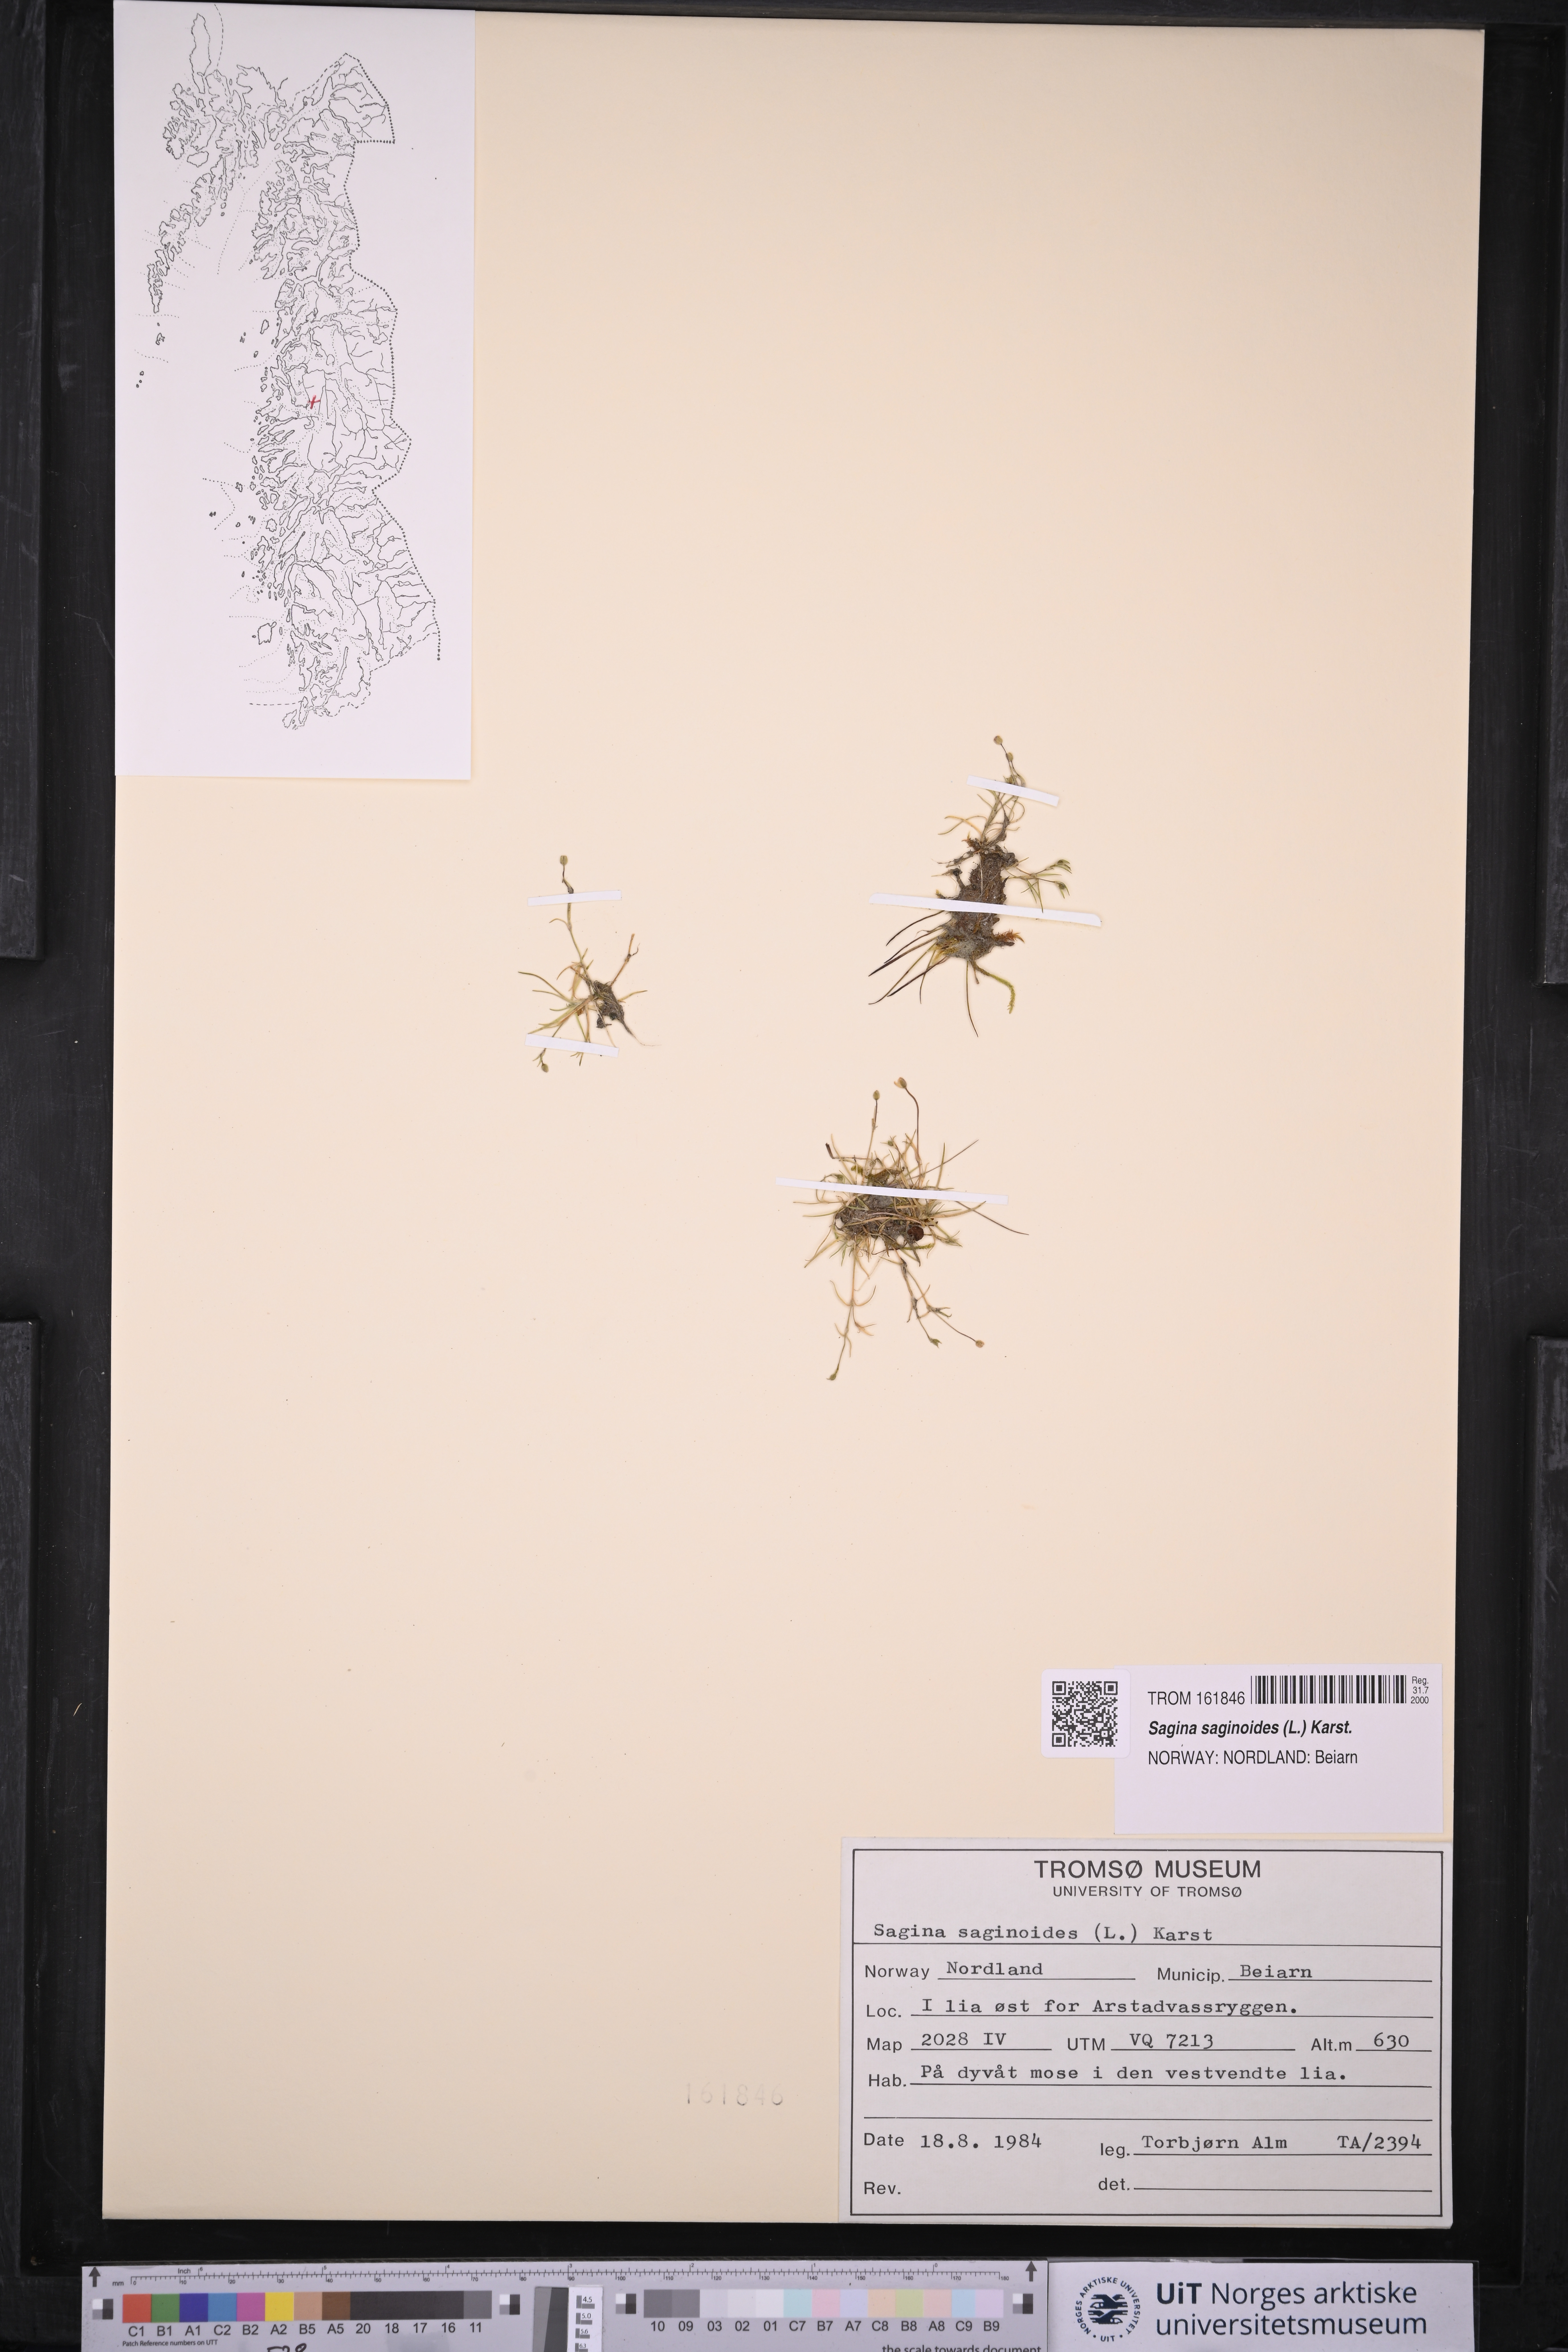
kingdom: Plantae
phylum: Tracheophyta
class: Magnoliopsida
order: Caryophyllales
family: Caryophyllaceae
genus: Sagina
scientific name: Sagina saginoides
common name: Alpine pearlwort
